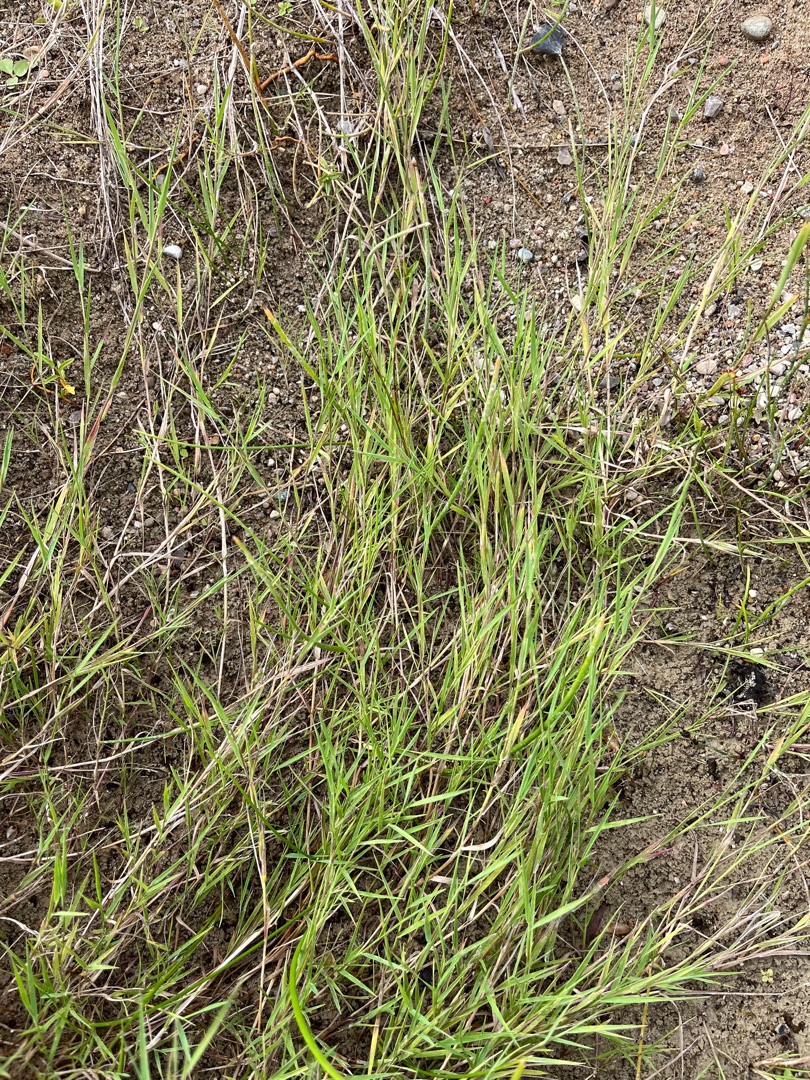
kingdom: Plantae
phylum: Tracheophyta
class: Liliopsida
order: Poales
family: Poaceae
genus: Agrostis
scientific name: Agrostis stolonifera
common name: Kryb-hvene
